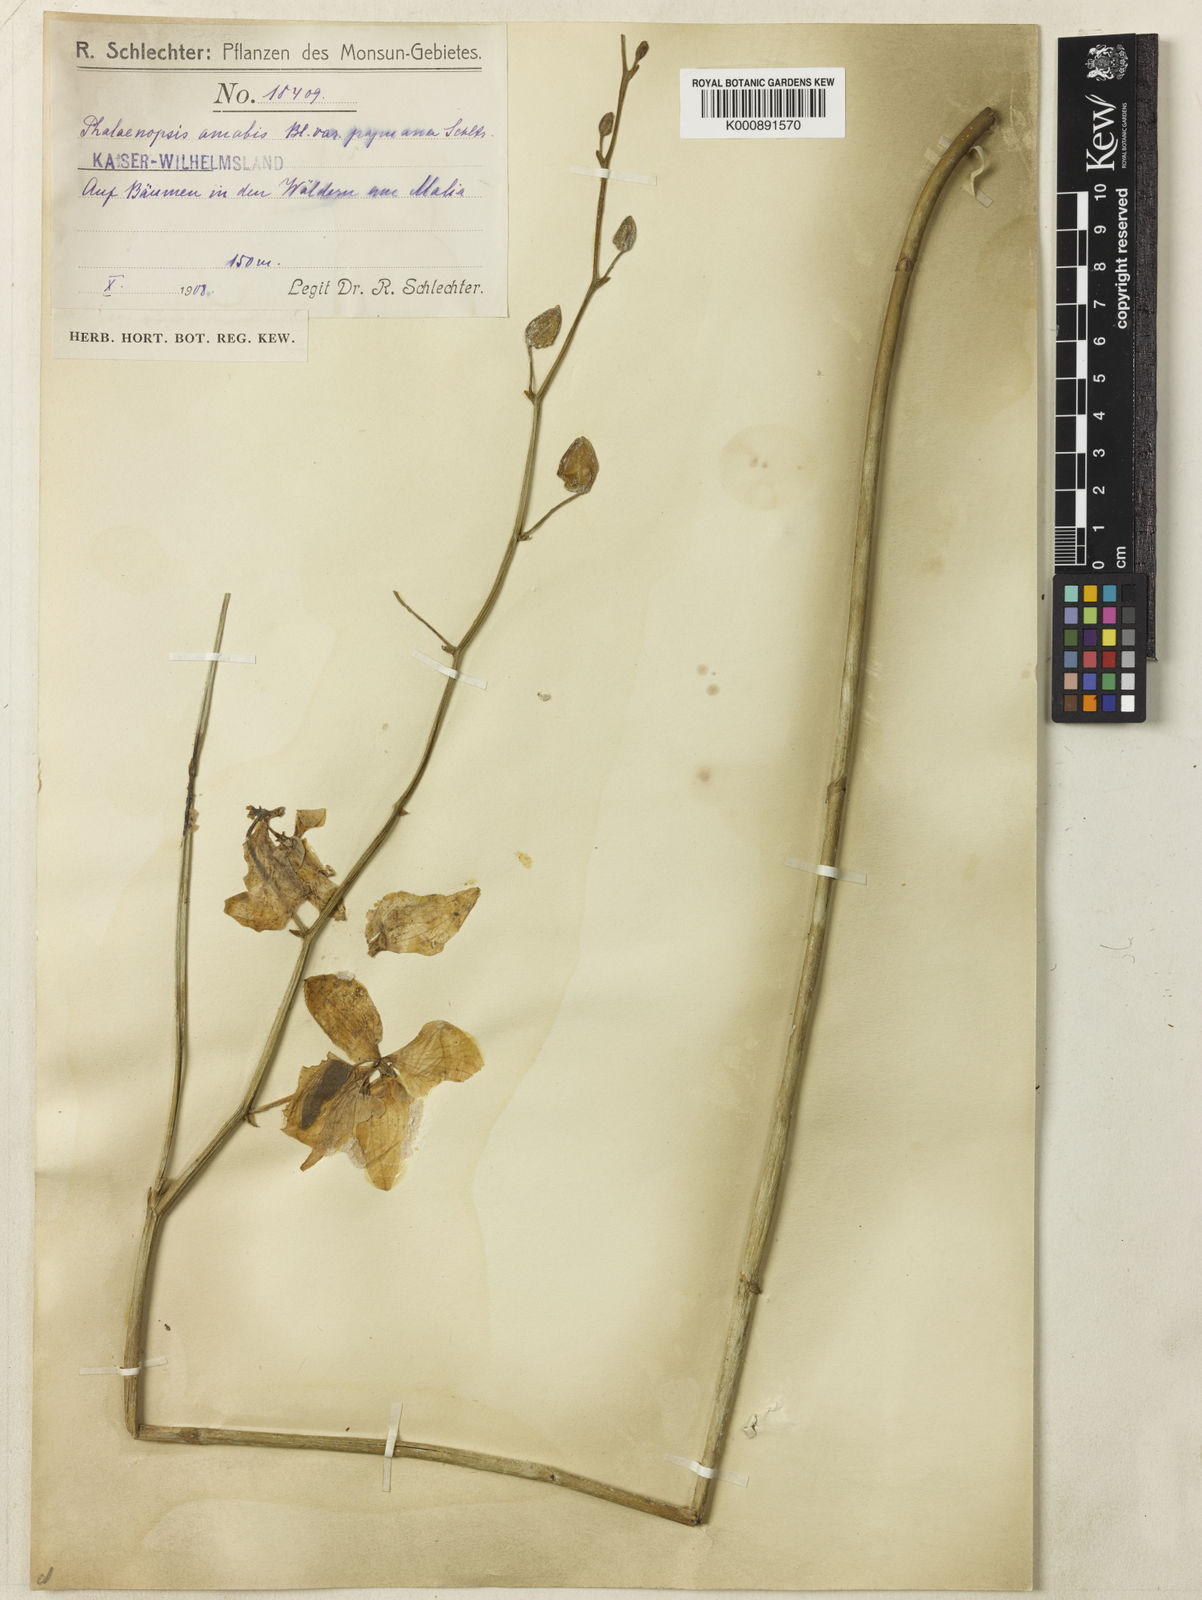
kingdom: Plantae
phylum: Tracheophyta
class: Liliopsida
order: Asparagales
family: Orchidaceae
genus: Phalaenopsis
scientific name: Phalaenopsis amabilis
